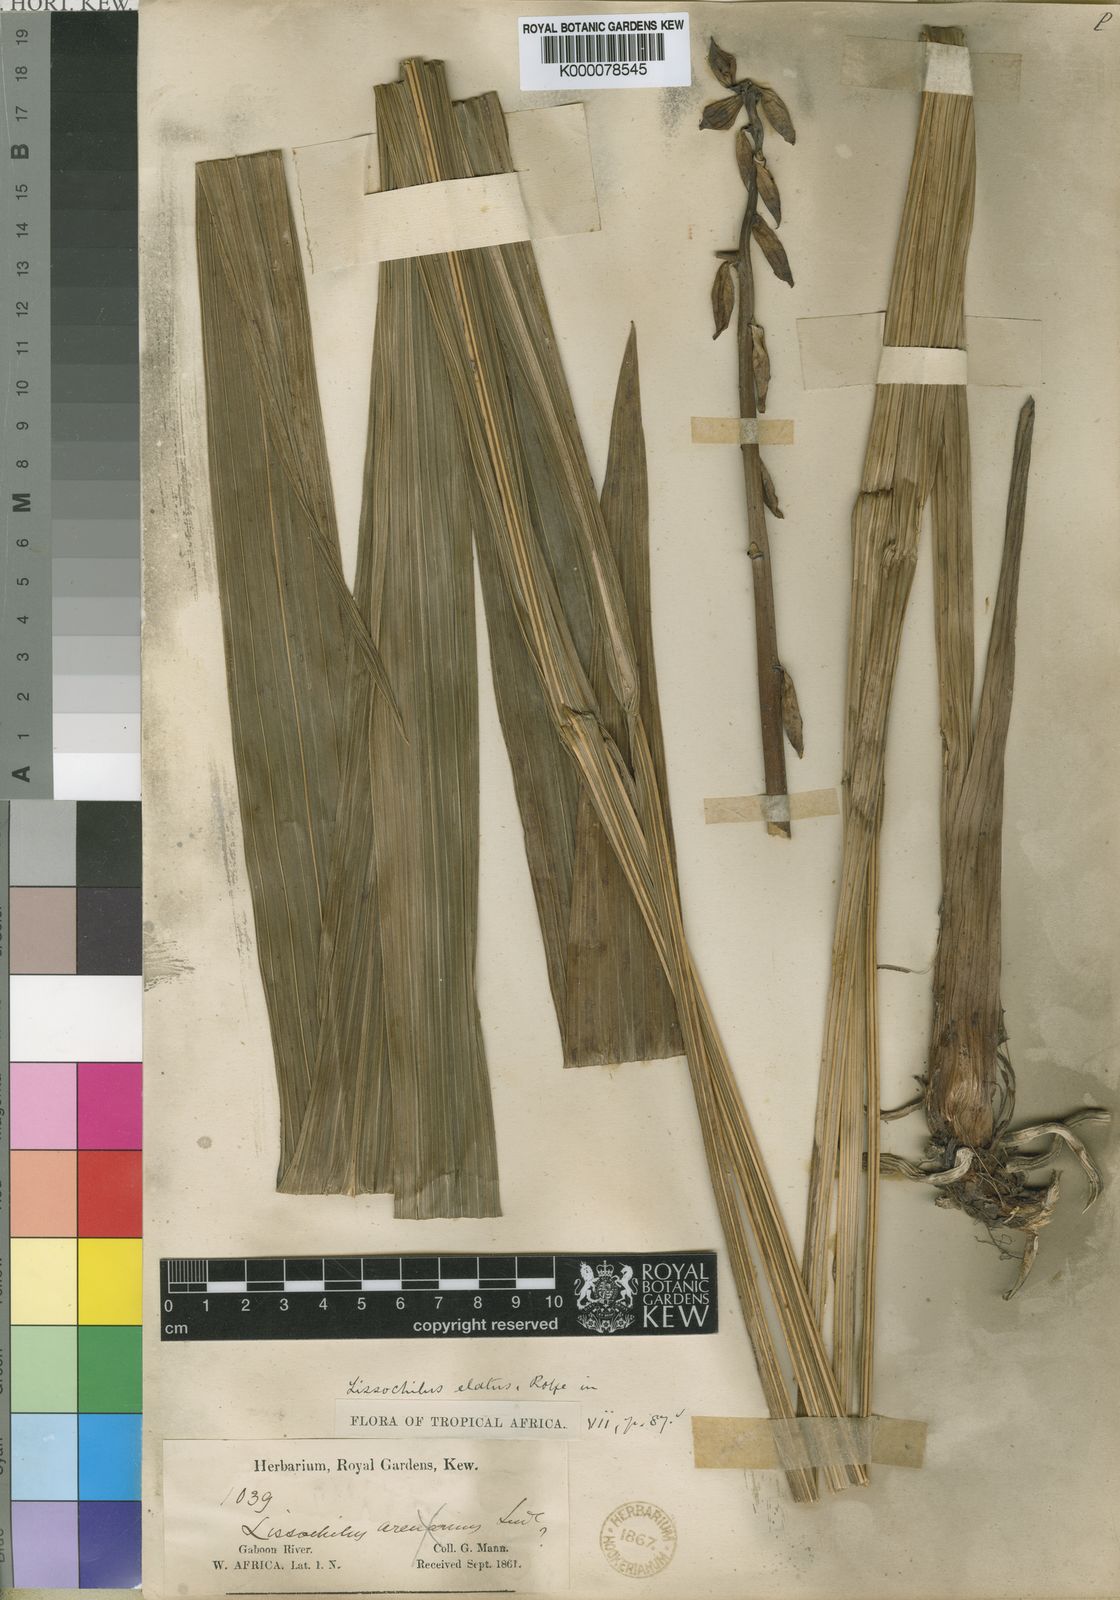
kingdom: Plantae
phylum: Tracheophyta
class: Liliopsida
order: Asparagales
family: Orchidaceae
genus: Eulophia
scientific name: Eulophia bouliawongo
